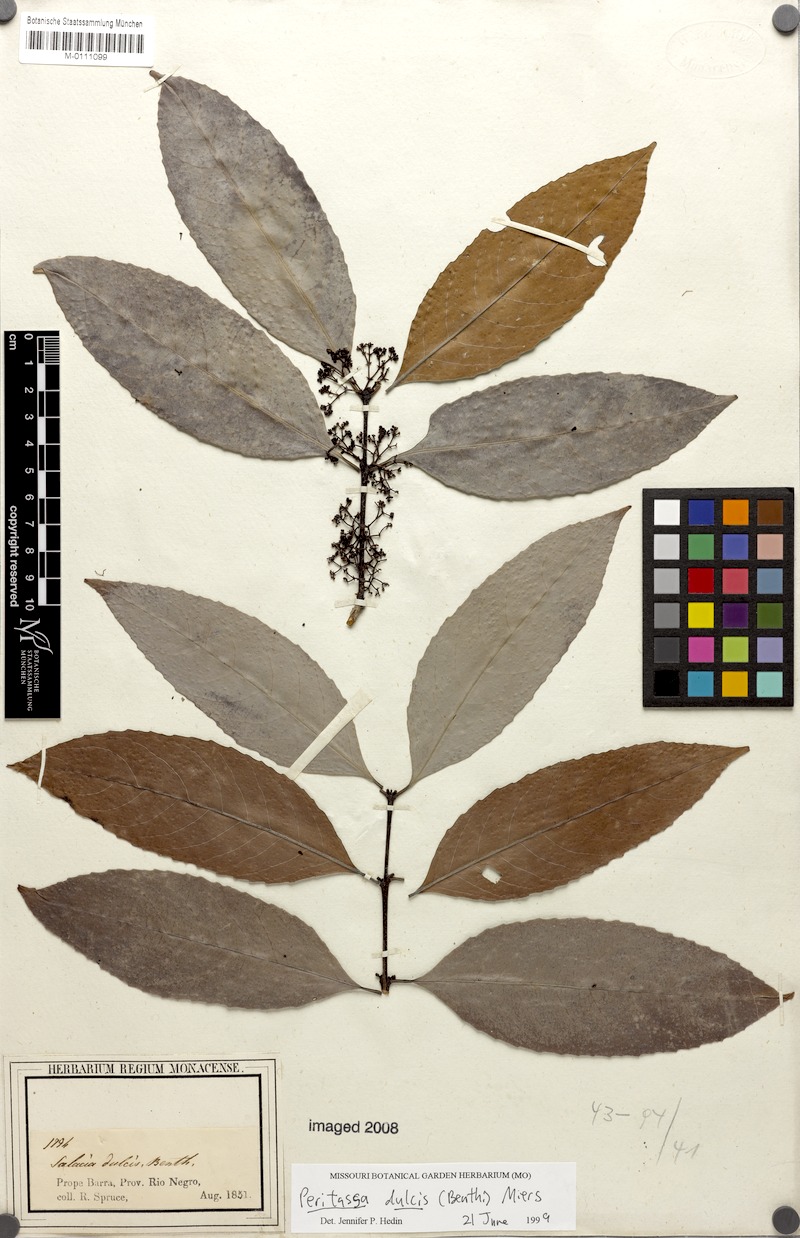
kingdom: Plantae
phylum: Tracheophyta
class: Magnoliopsida
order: Celastrales
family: Celastraceae
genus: Peritassa
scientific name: Peritassa dulcis
